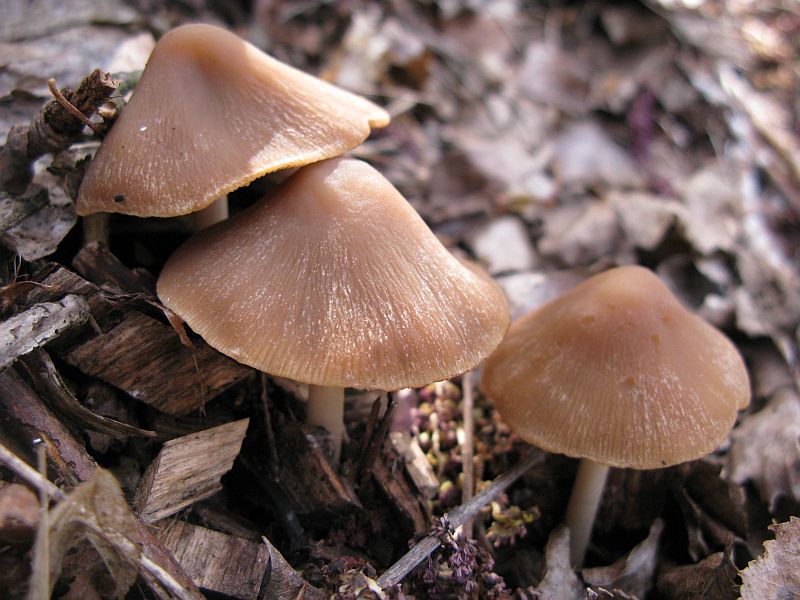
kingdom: Fungi
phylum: Basidiomycota
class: Agaricomycetes
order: Agaricales
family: Psathyrellaceae
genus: Psathyrella
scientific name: Psathyrella spadiceogrisea
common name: gråbrun mørkhat
